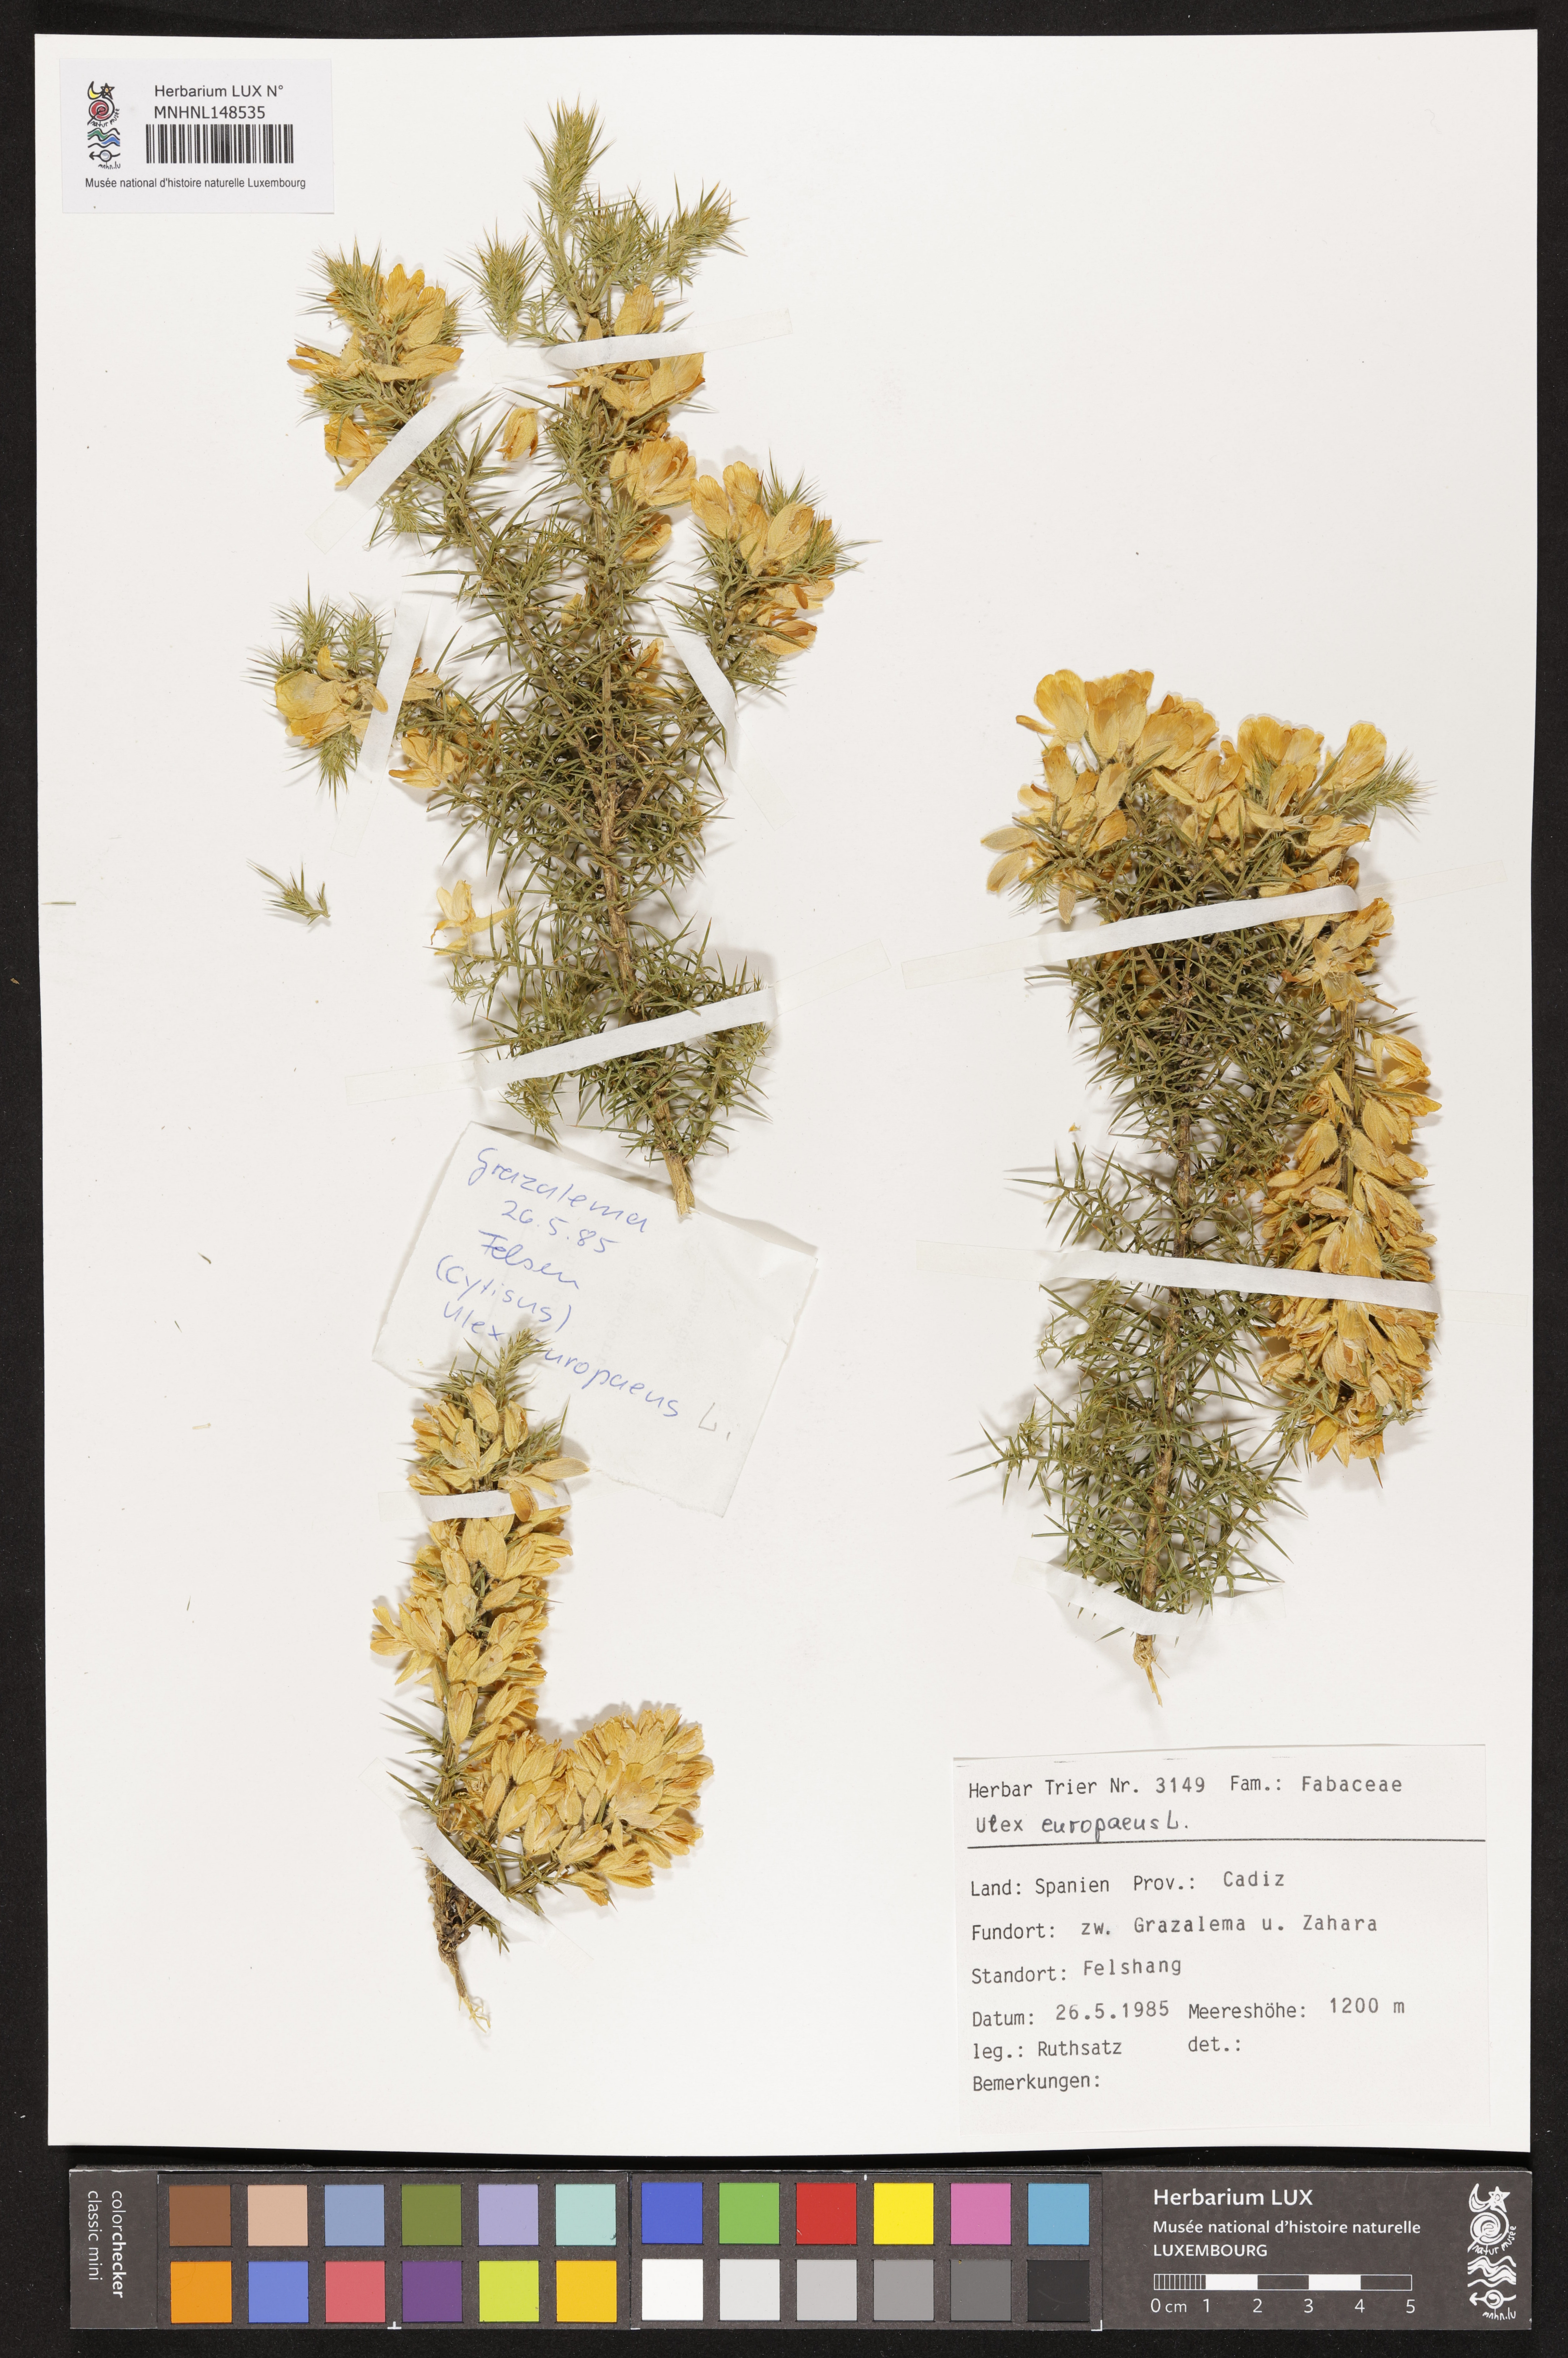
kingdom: Plantae
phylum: Tracheophyta
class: Magnoliopsida
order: Fabales
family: Fabaceae
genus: Ulex
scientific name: Ulex europaeus
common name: Common gorse
